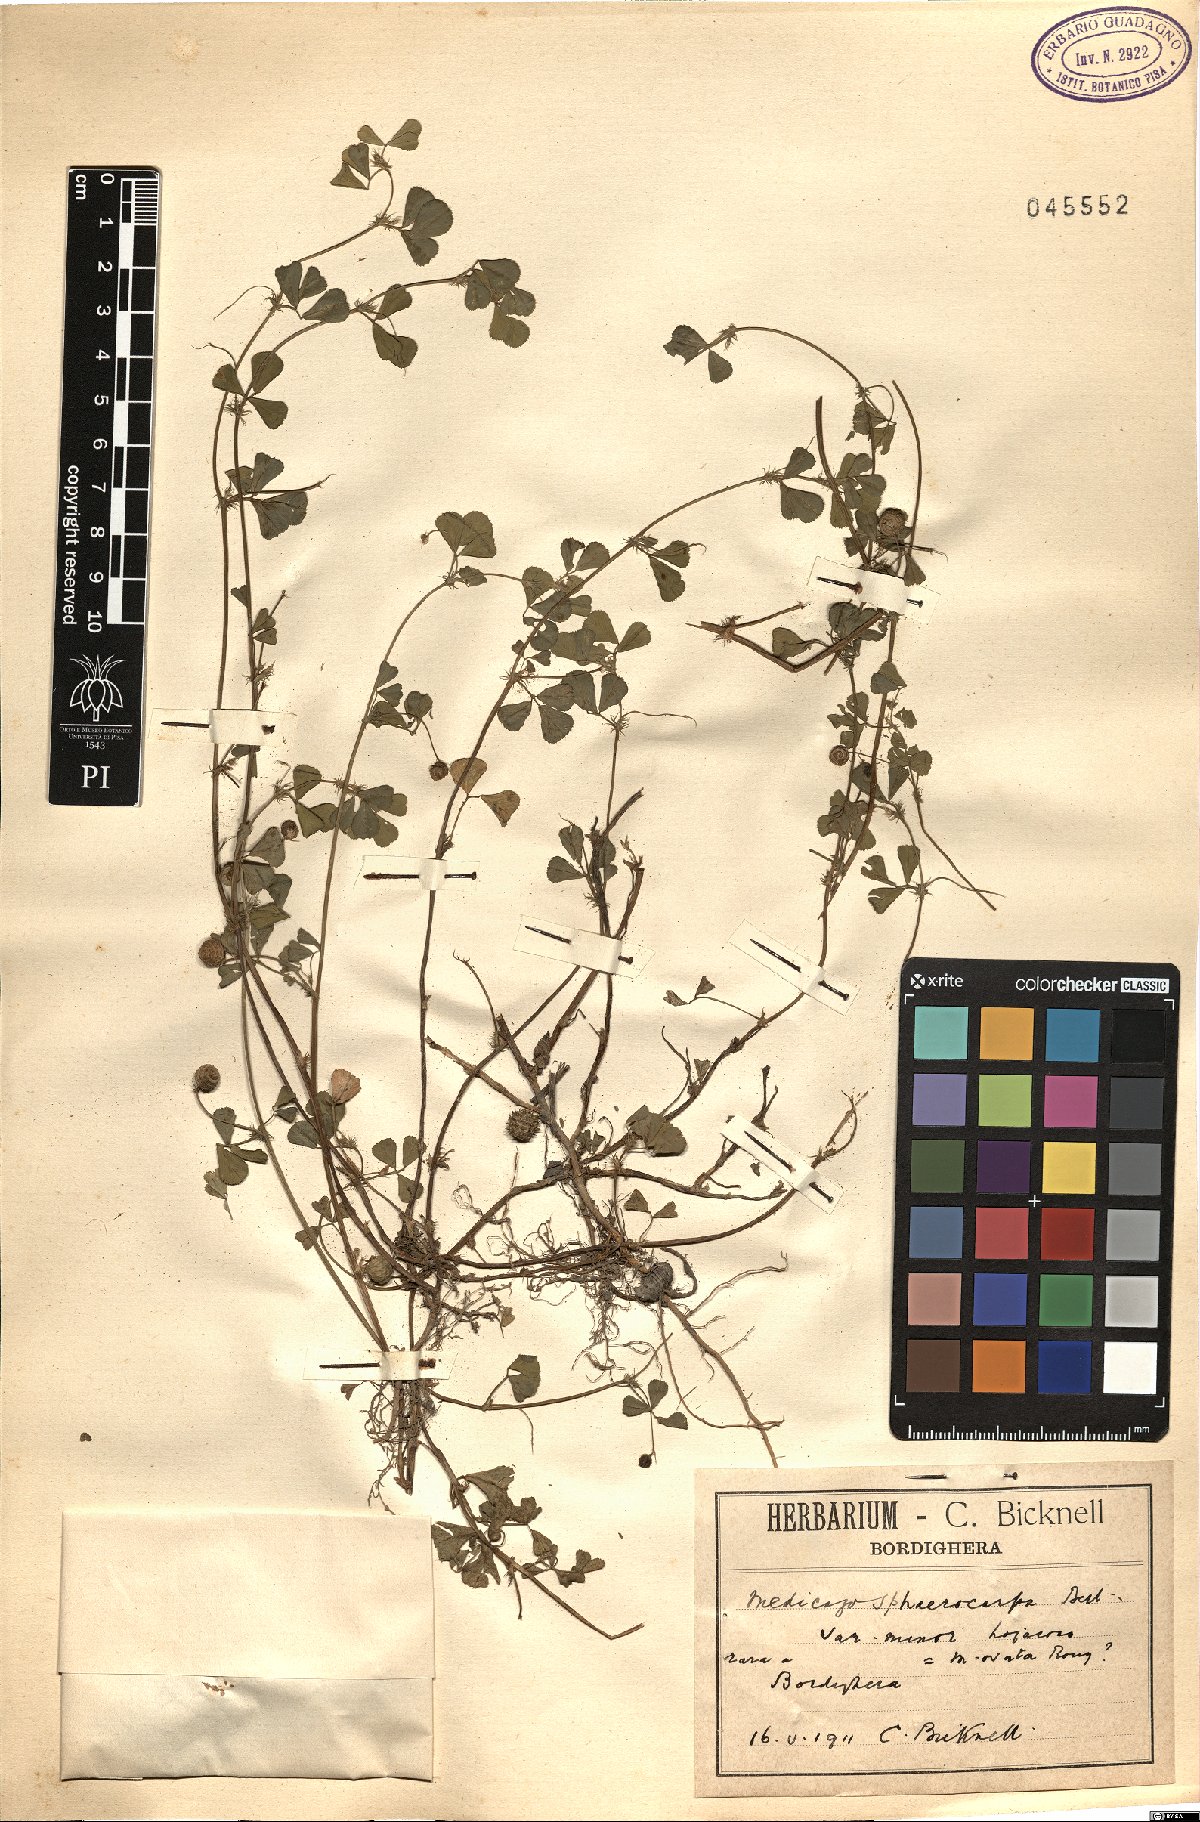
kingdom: Plantae
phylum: Tracheophyta
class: Magnoliopsida
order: Fabales
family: Fabaceae
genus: Medicago
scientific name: Medicago sphaerocarpos
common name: Sphere medic
